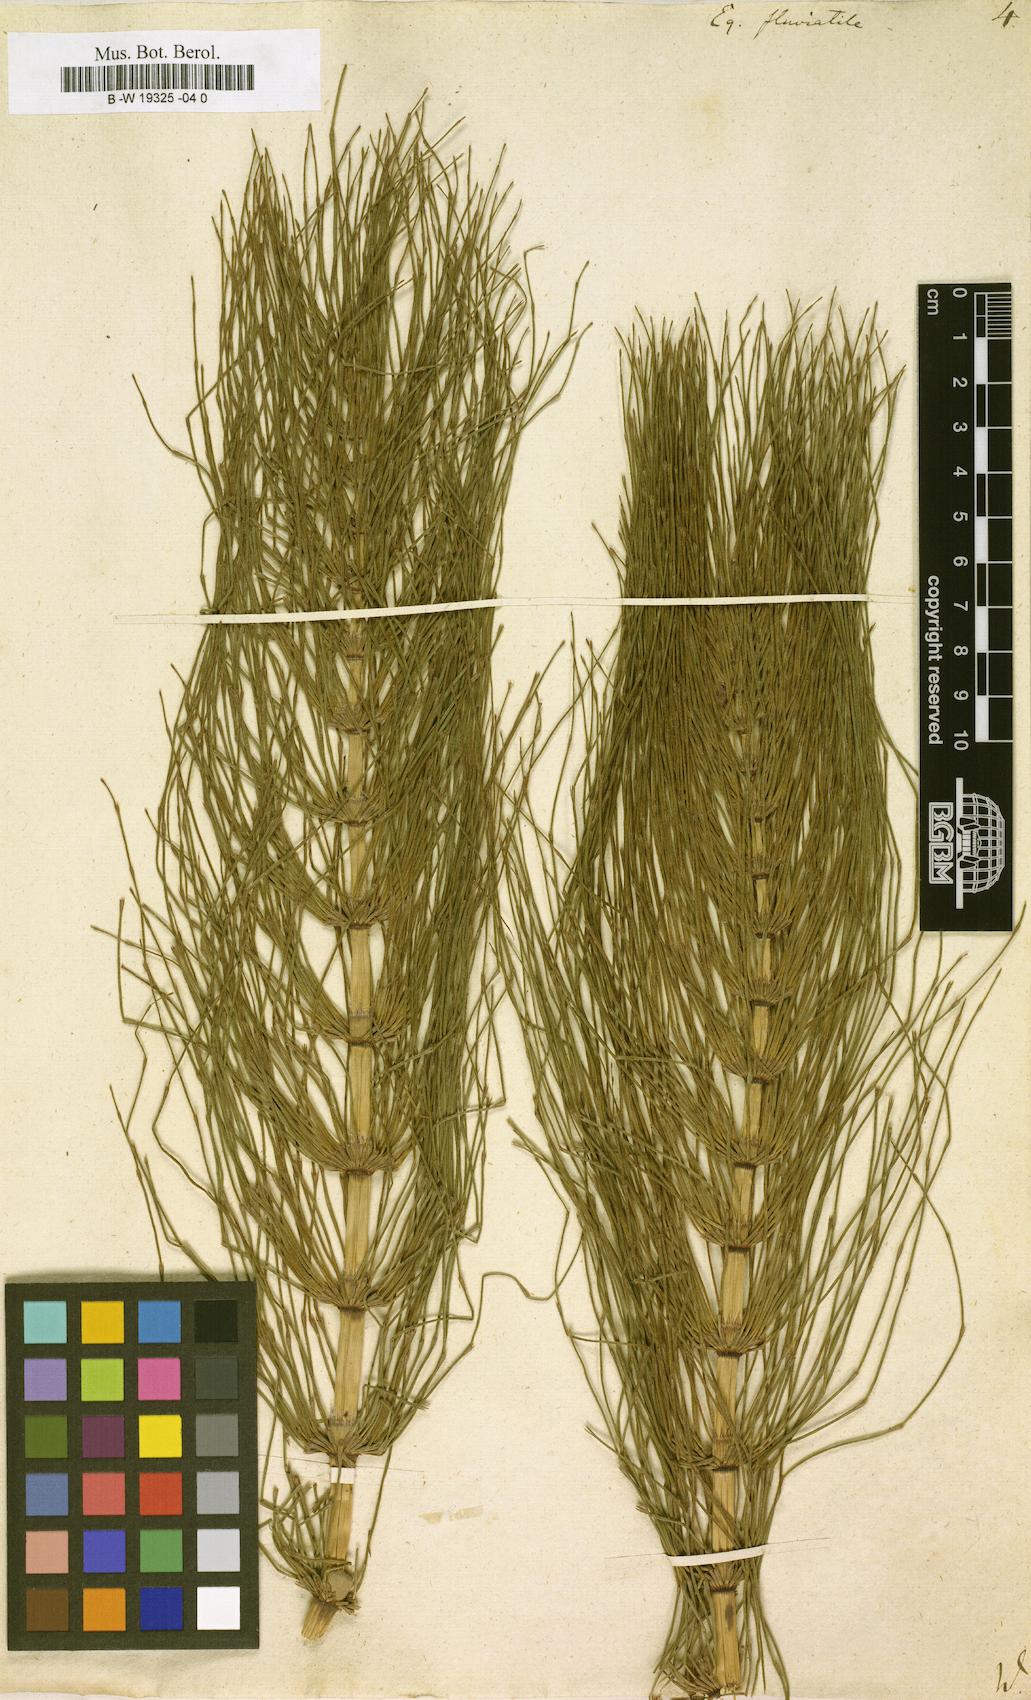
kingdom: Plantae
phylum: Tracheophyta
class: Polypodiopsida
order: Equisetales
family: Equisetaceae
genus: Equisetum
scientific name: Equisetum fluviatile
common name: Water horsetail
